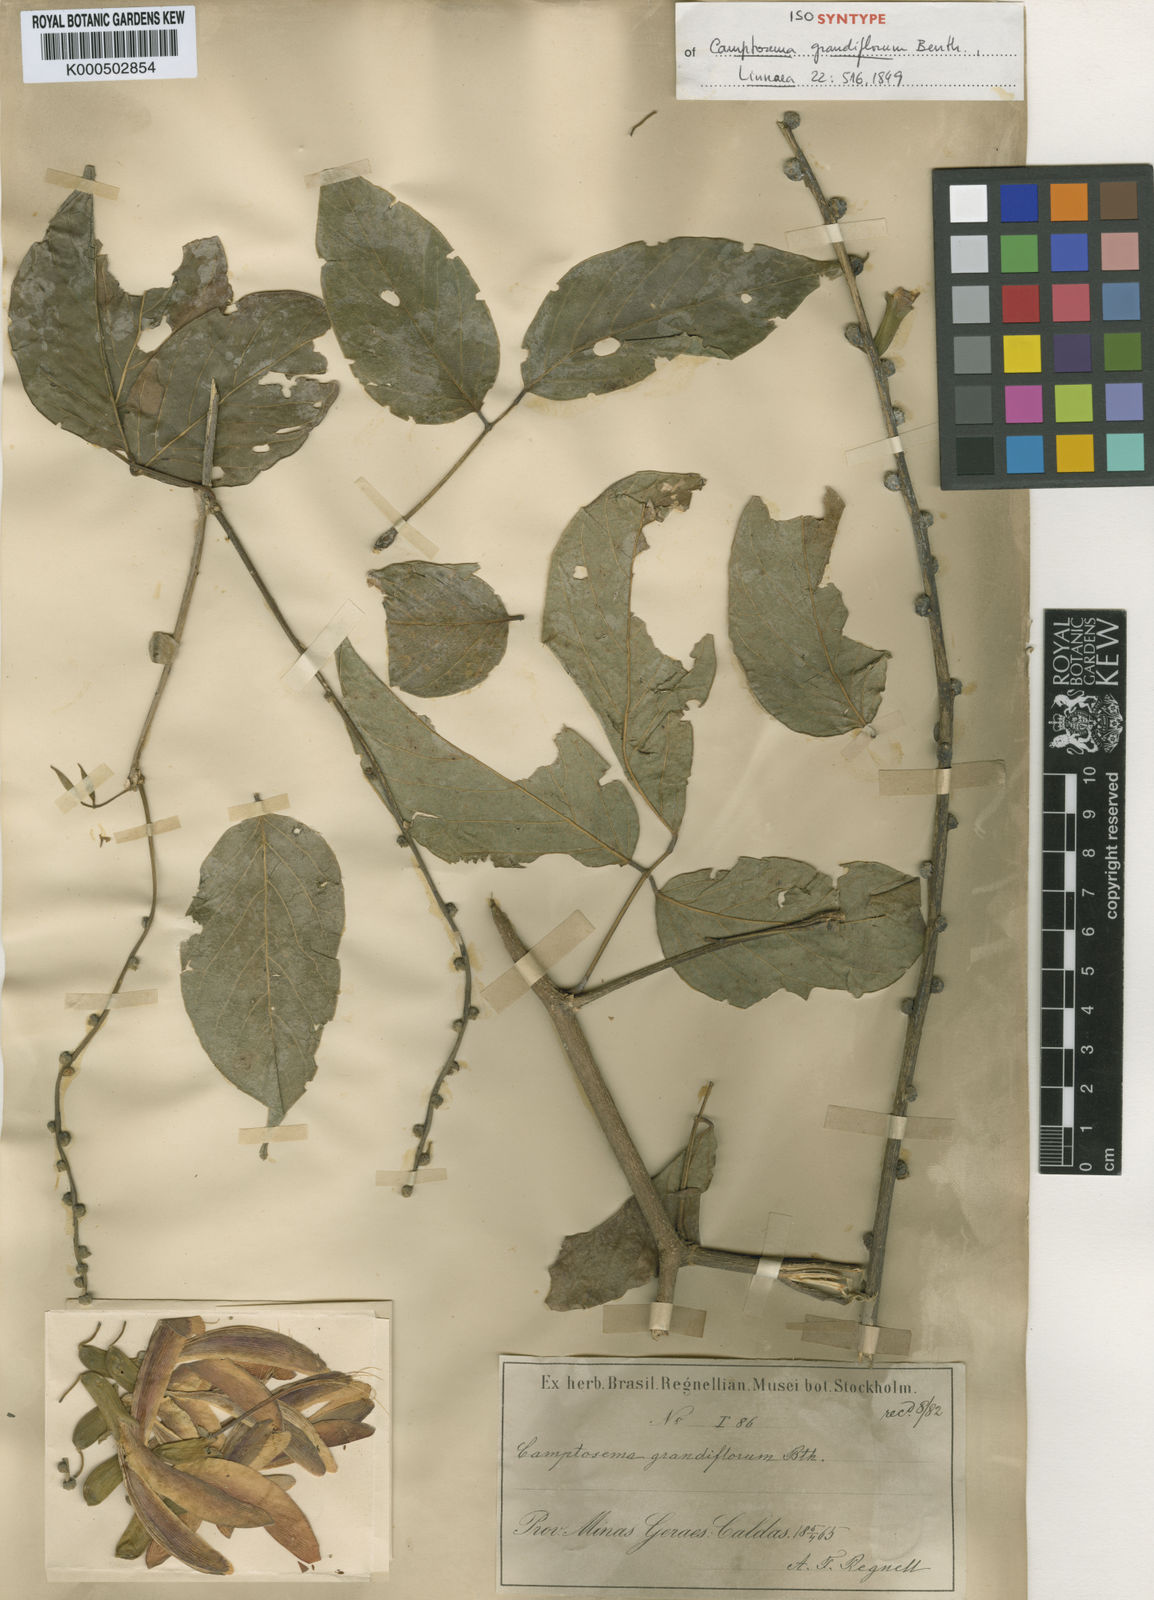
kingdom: Plantae
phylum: Tracheophyta
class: Magnoliopsida
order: Fabales
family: Fabaceae
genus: Camptosema
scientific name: Camptosema spectabile
